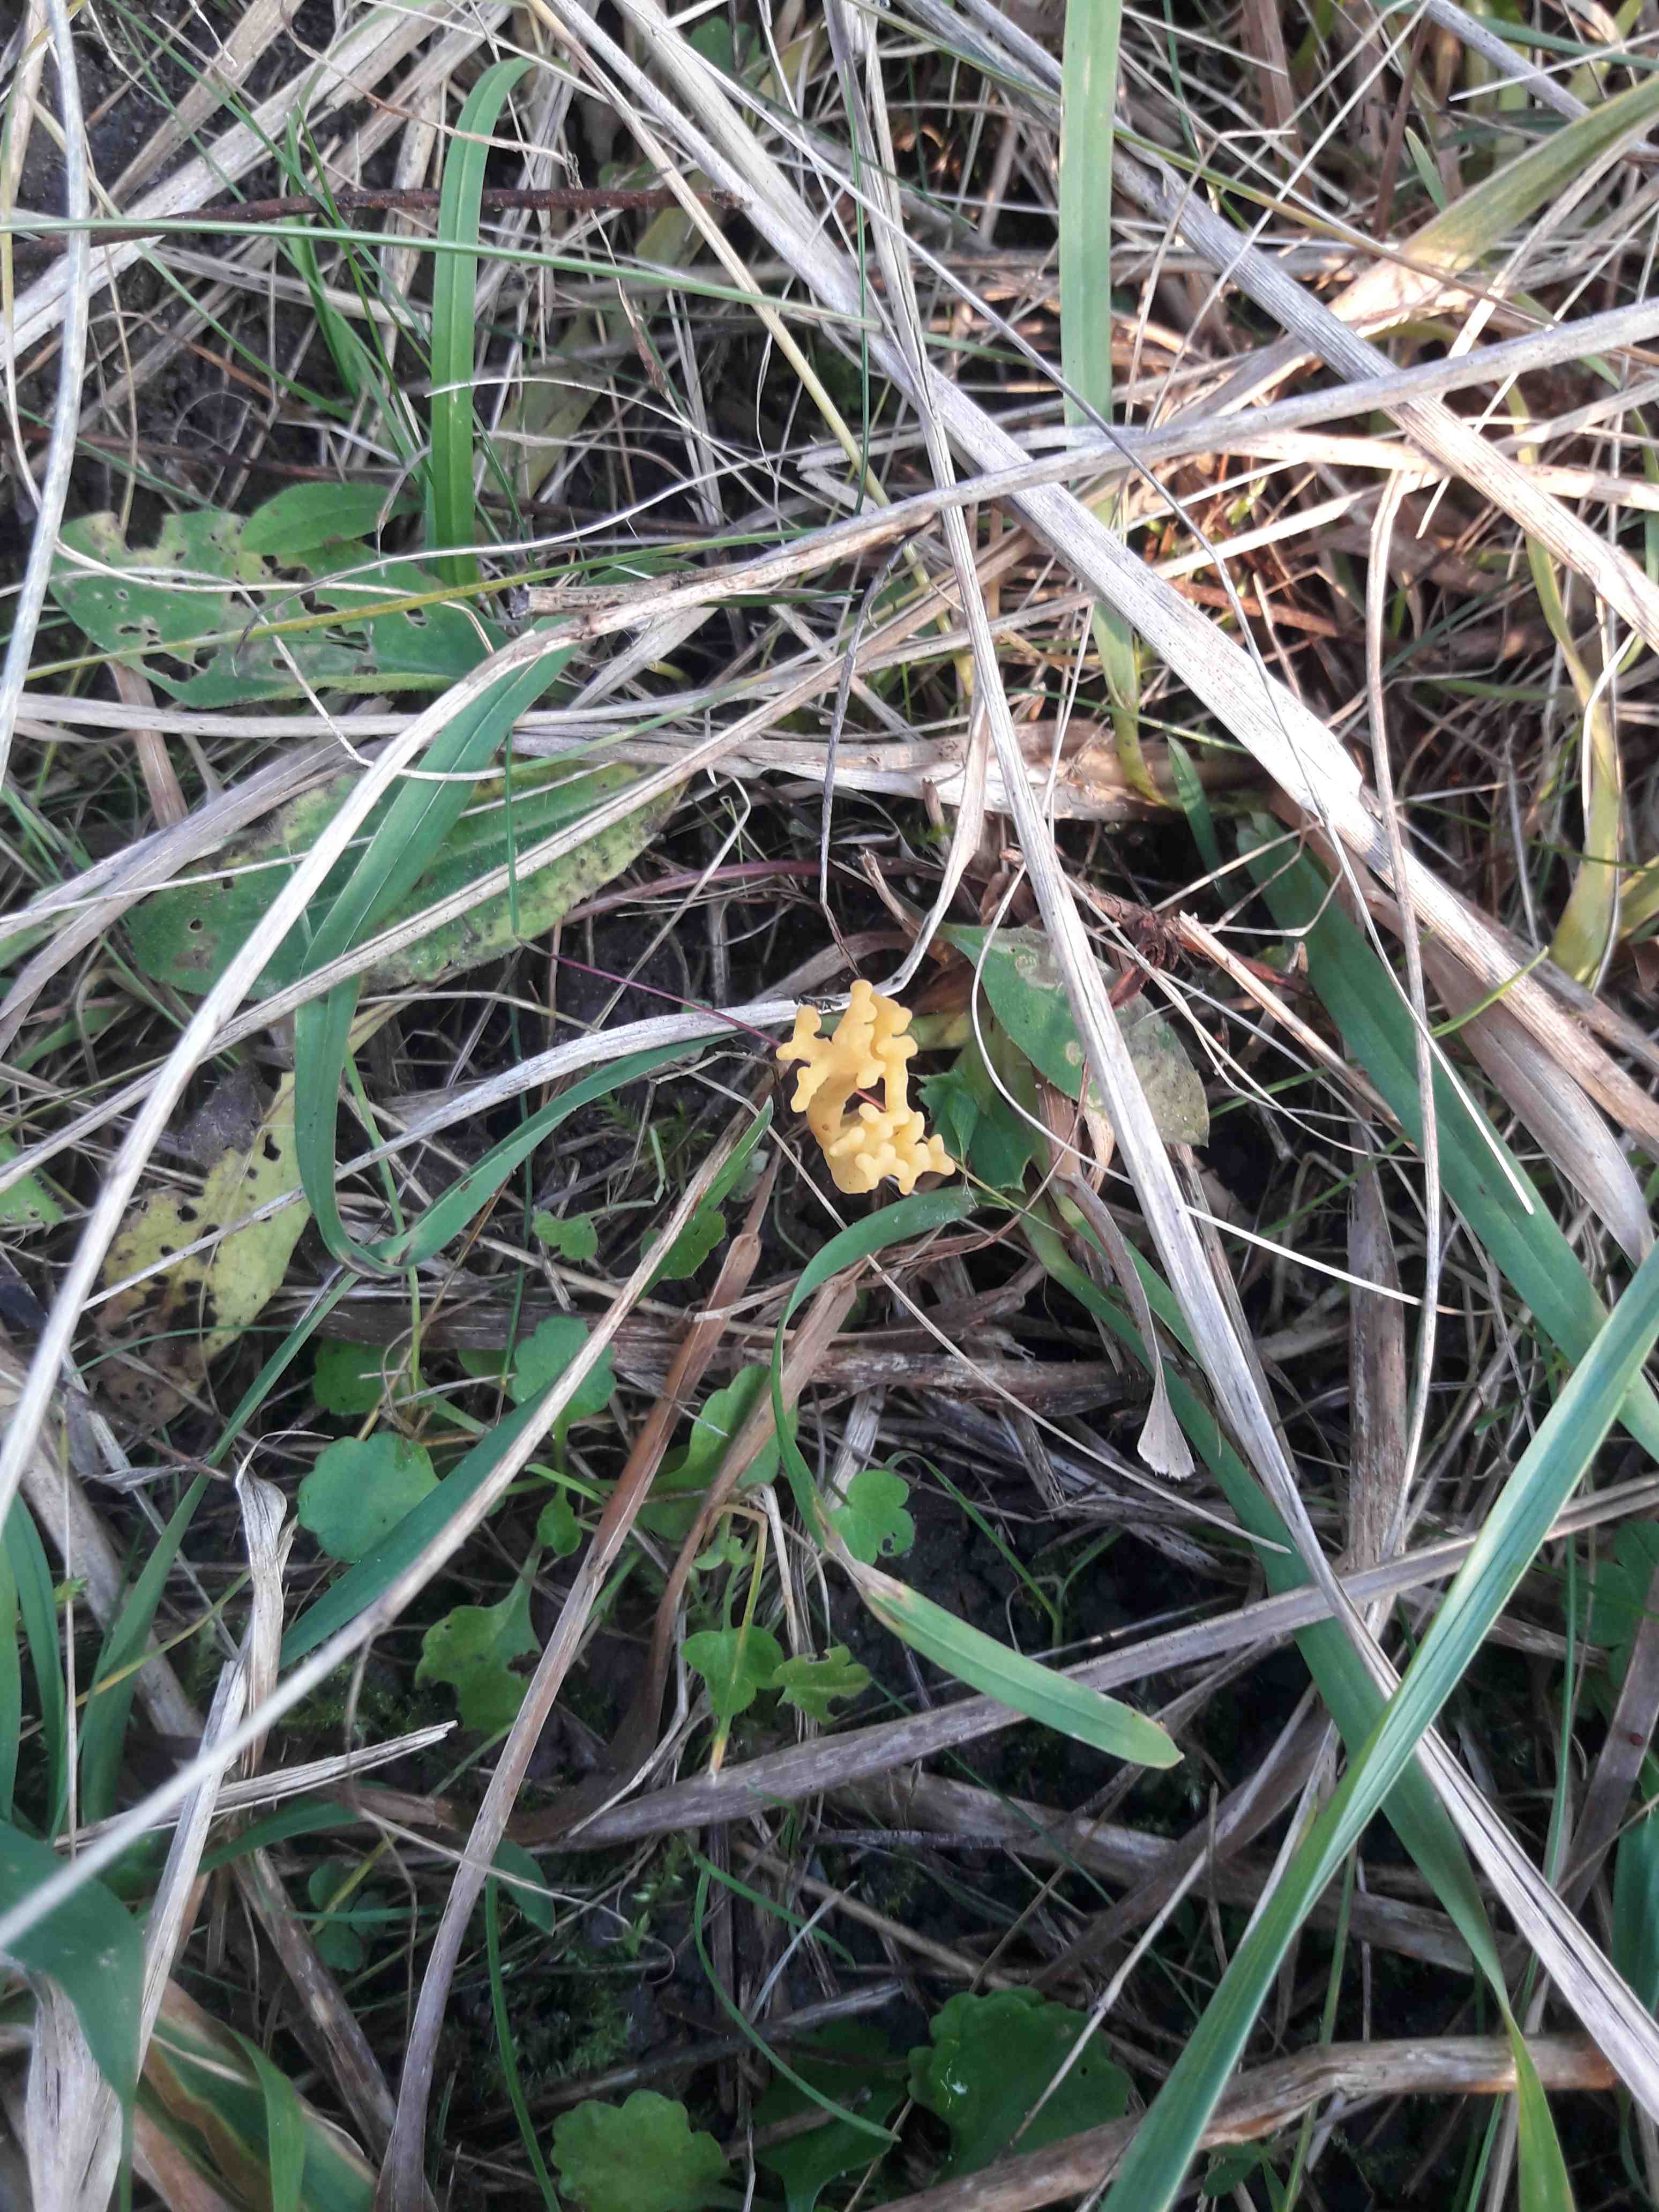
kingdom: Fungi
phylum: Basidiomycota
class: Agaricomycetes
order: Agaricales
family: Clavariaceae
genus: Clavulinopsis
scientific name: Clavulinopsis corniculata
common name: eng-køllesvamp
